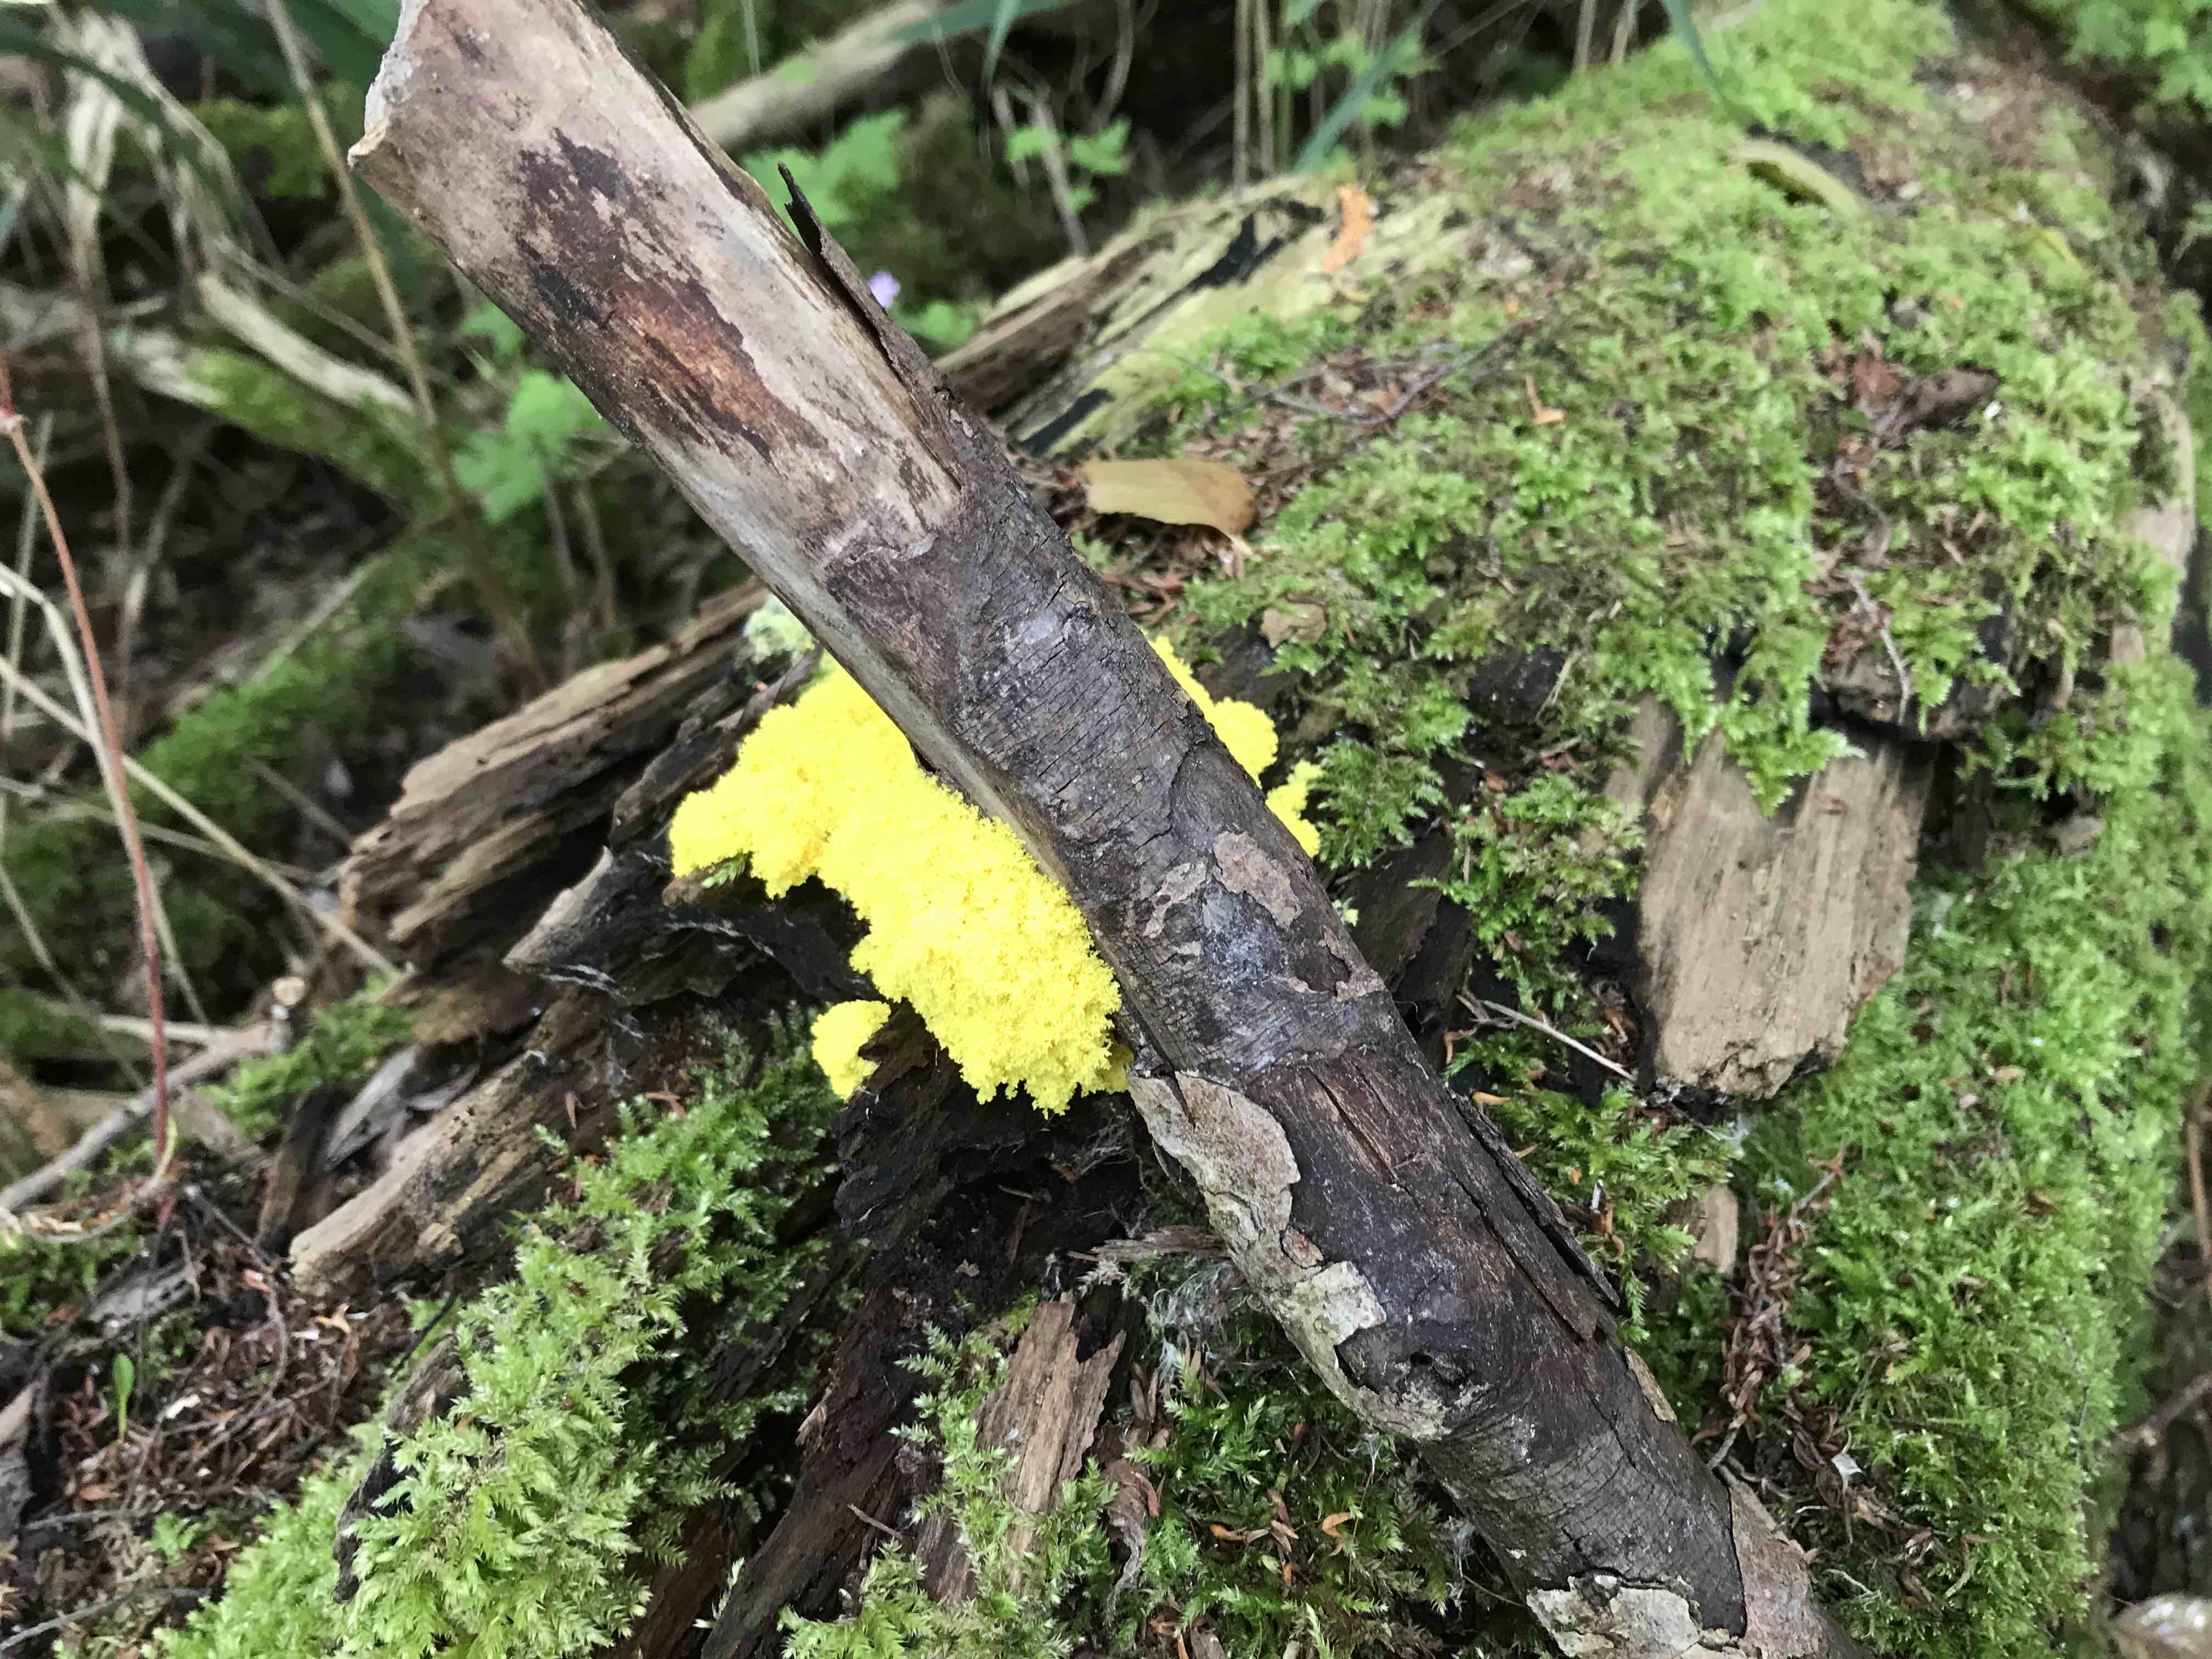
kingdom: Protozoa
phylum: Mycetozoa
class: Myxomycetes
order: Physarales
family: Physaraceae
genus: Fuligo
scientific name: Fuligo septica
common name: gul troldsmør
